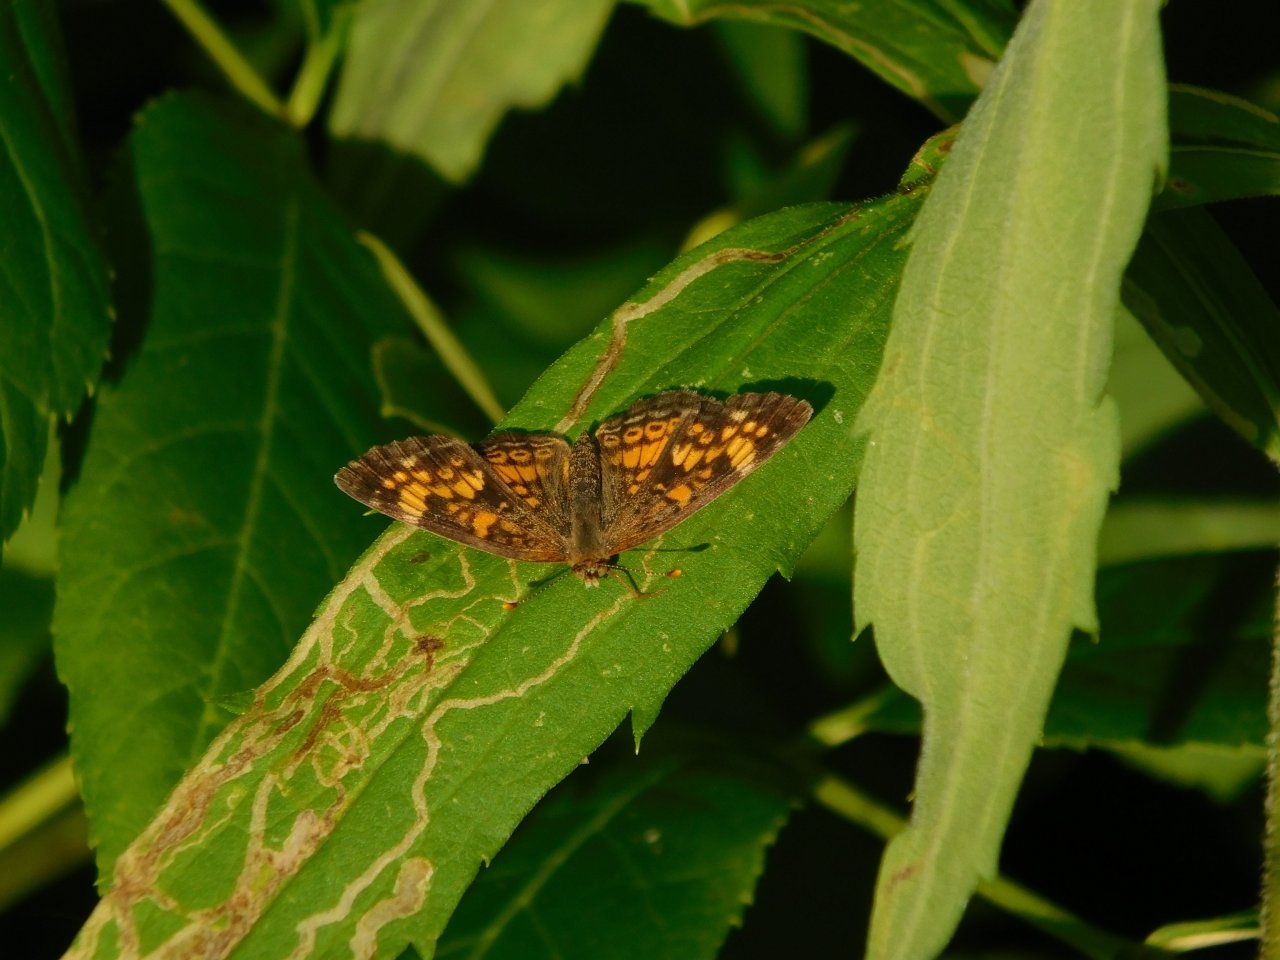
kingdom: Animalia
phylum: Arthropoda
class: Insecta
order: Lepidoptera
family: Nymphalidae
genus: Phyciodes
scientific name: Phyciodes tharos
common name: Northern Crescent
